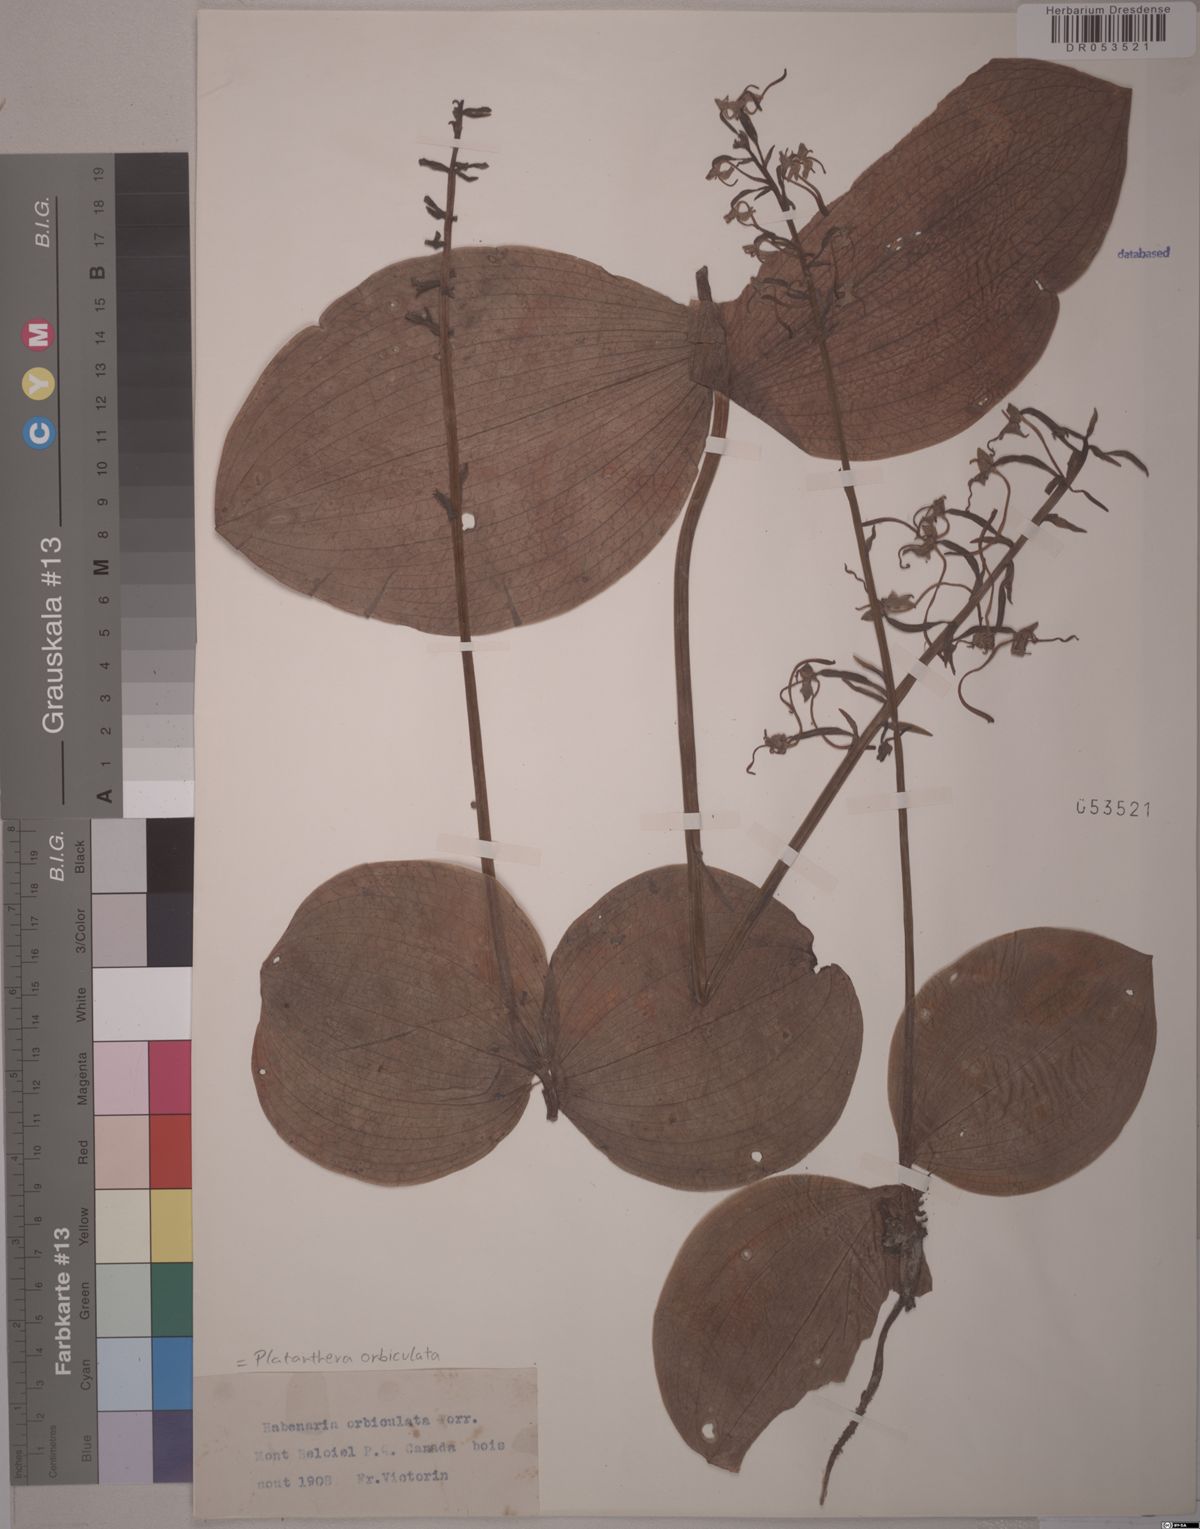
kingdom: Plantae
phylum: Tracheophyta
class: Liliopsida
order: Asparagales
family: Orchidaceae
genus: Platanthera
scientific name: Platanthera orbiculata
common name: Large round-leaved orchid
